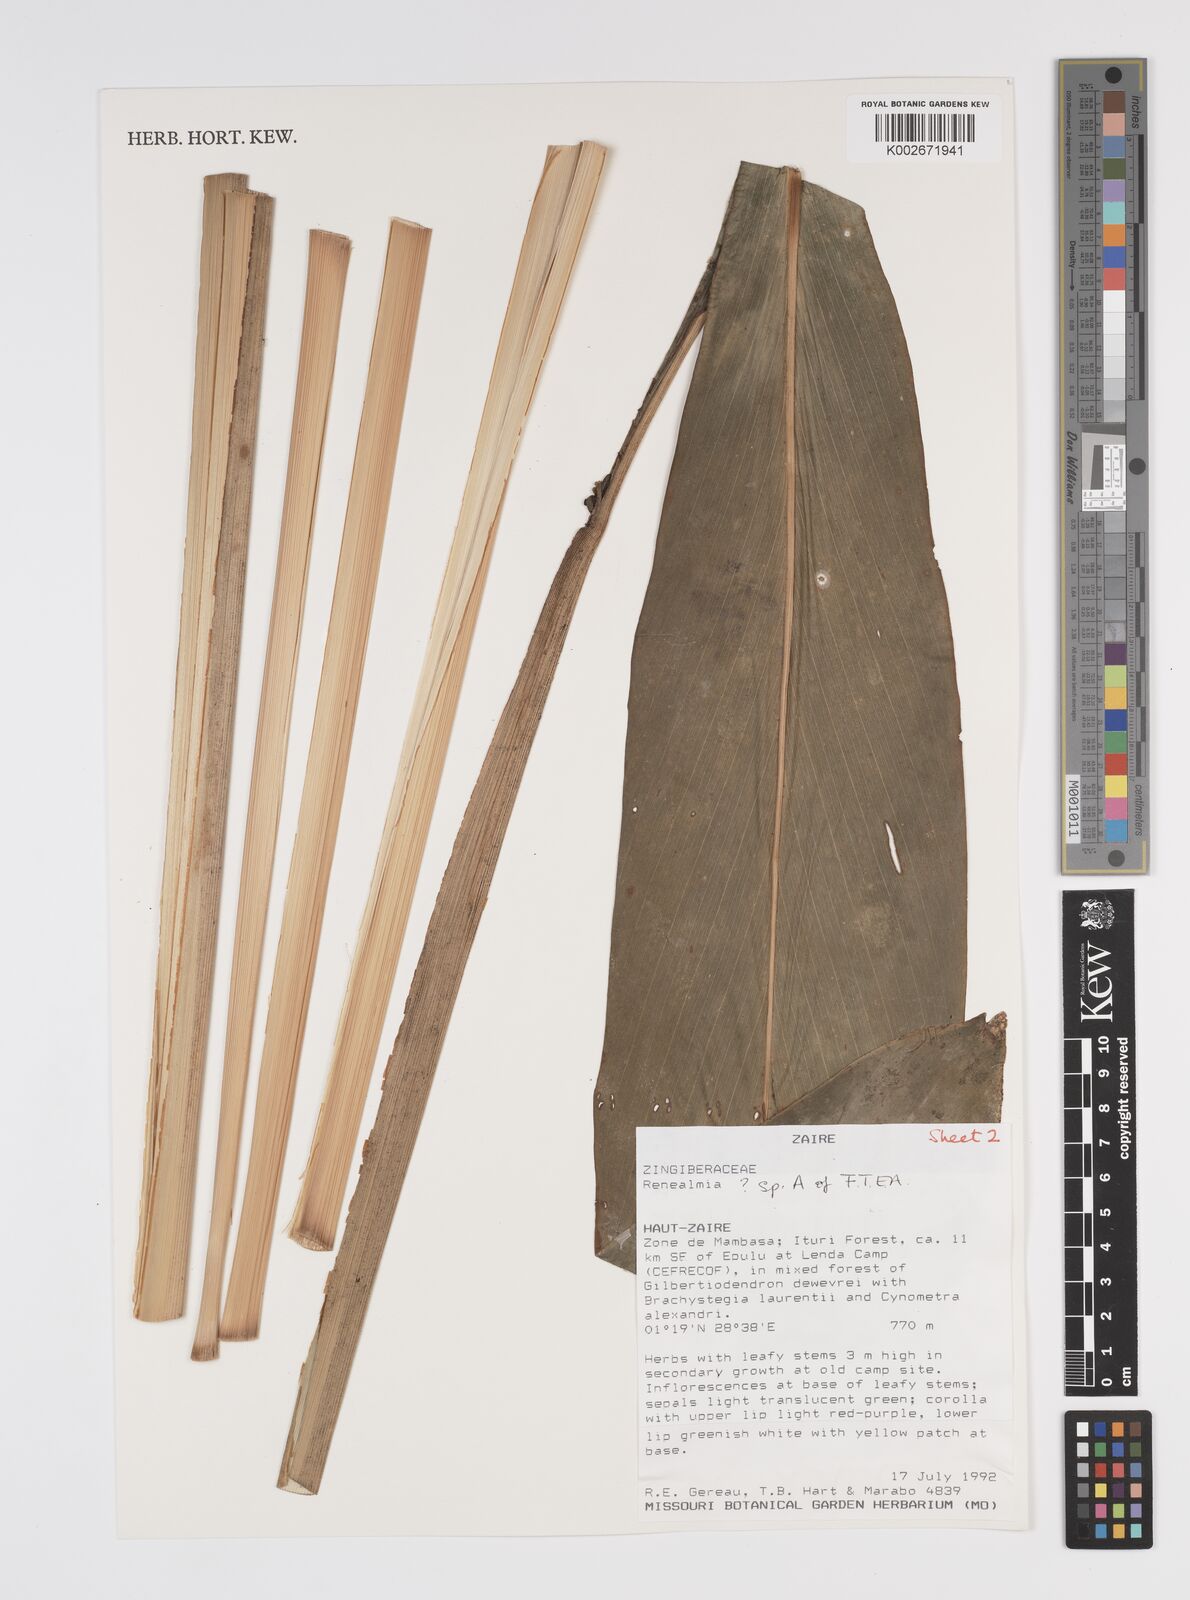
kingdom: Plantae
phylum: Tracheophyta
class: Liliopsida
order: Zingiberales
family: Zingiberaceae
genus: Renealmia
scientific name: Renealmia
